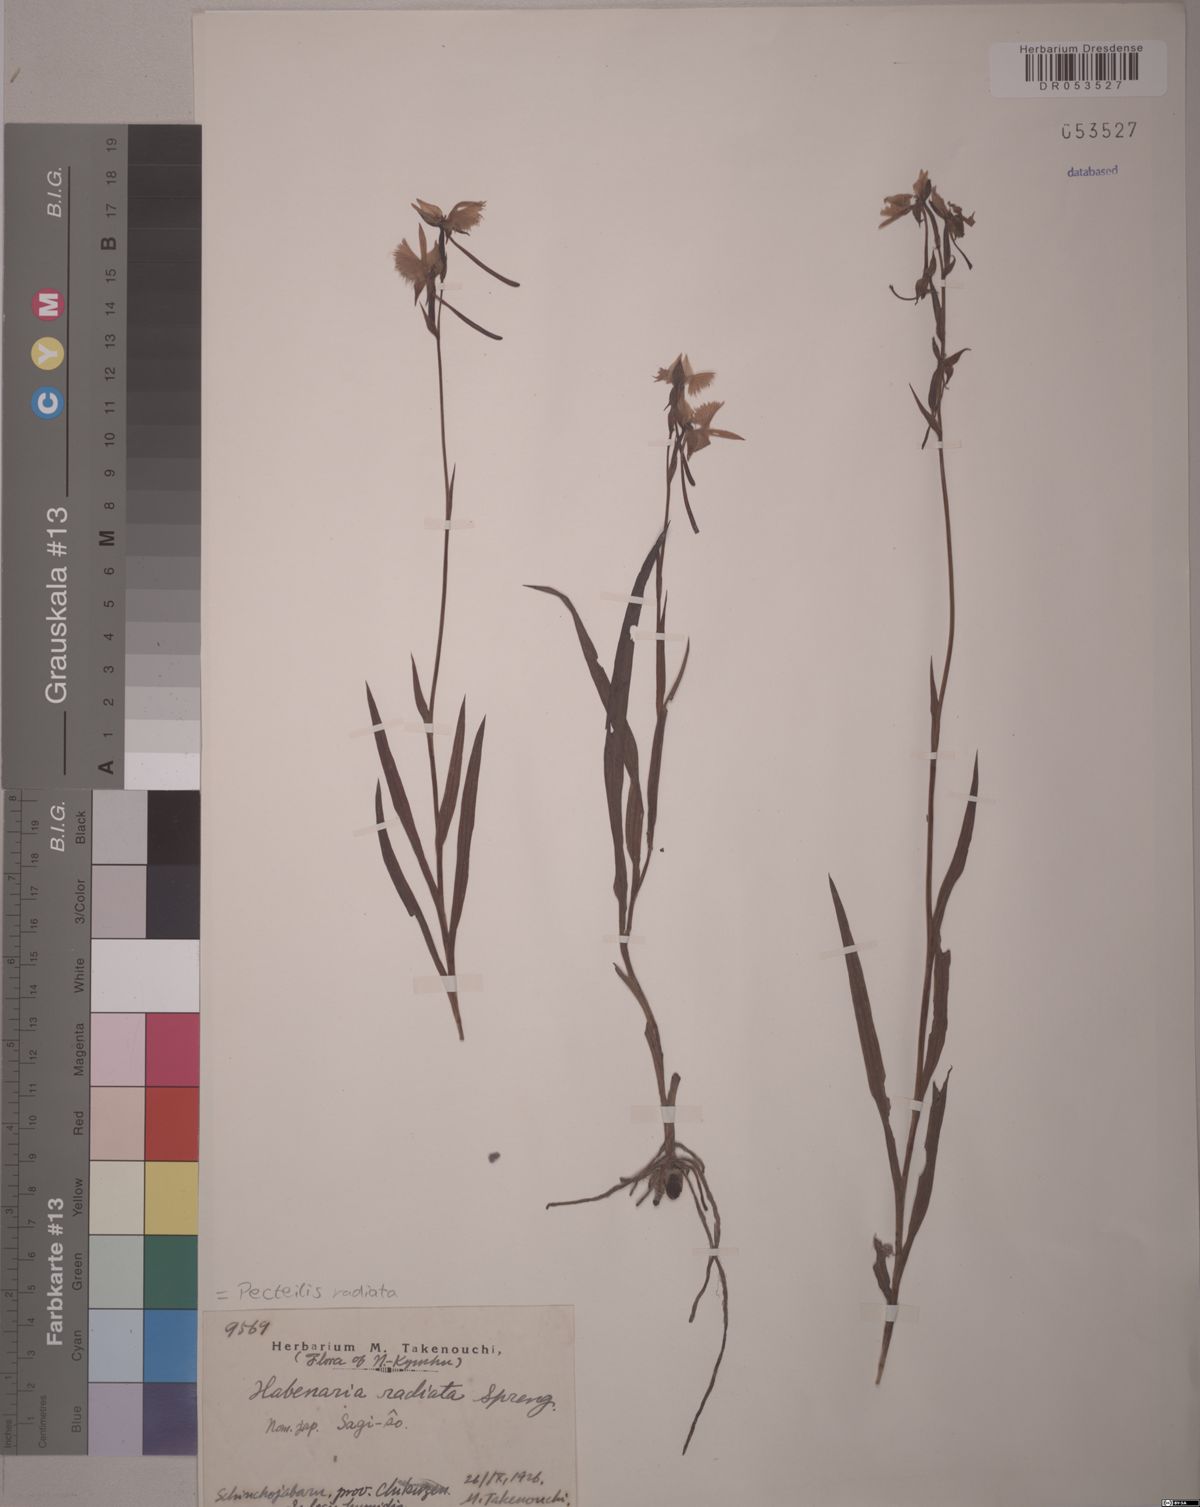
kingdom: Plantae
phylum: Tracheophyta
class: Liliopsida
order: Asparagales
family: Orchidaceae
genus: Pecteilis
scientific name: Pecteilis radiata
